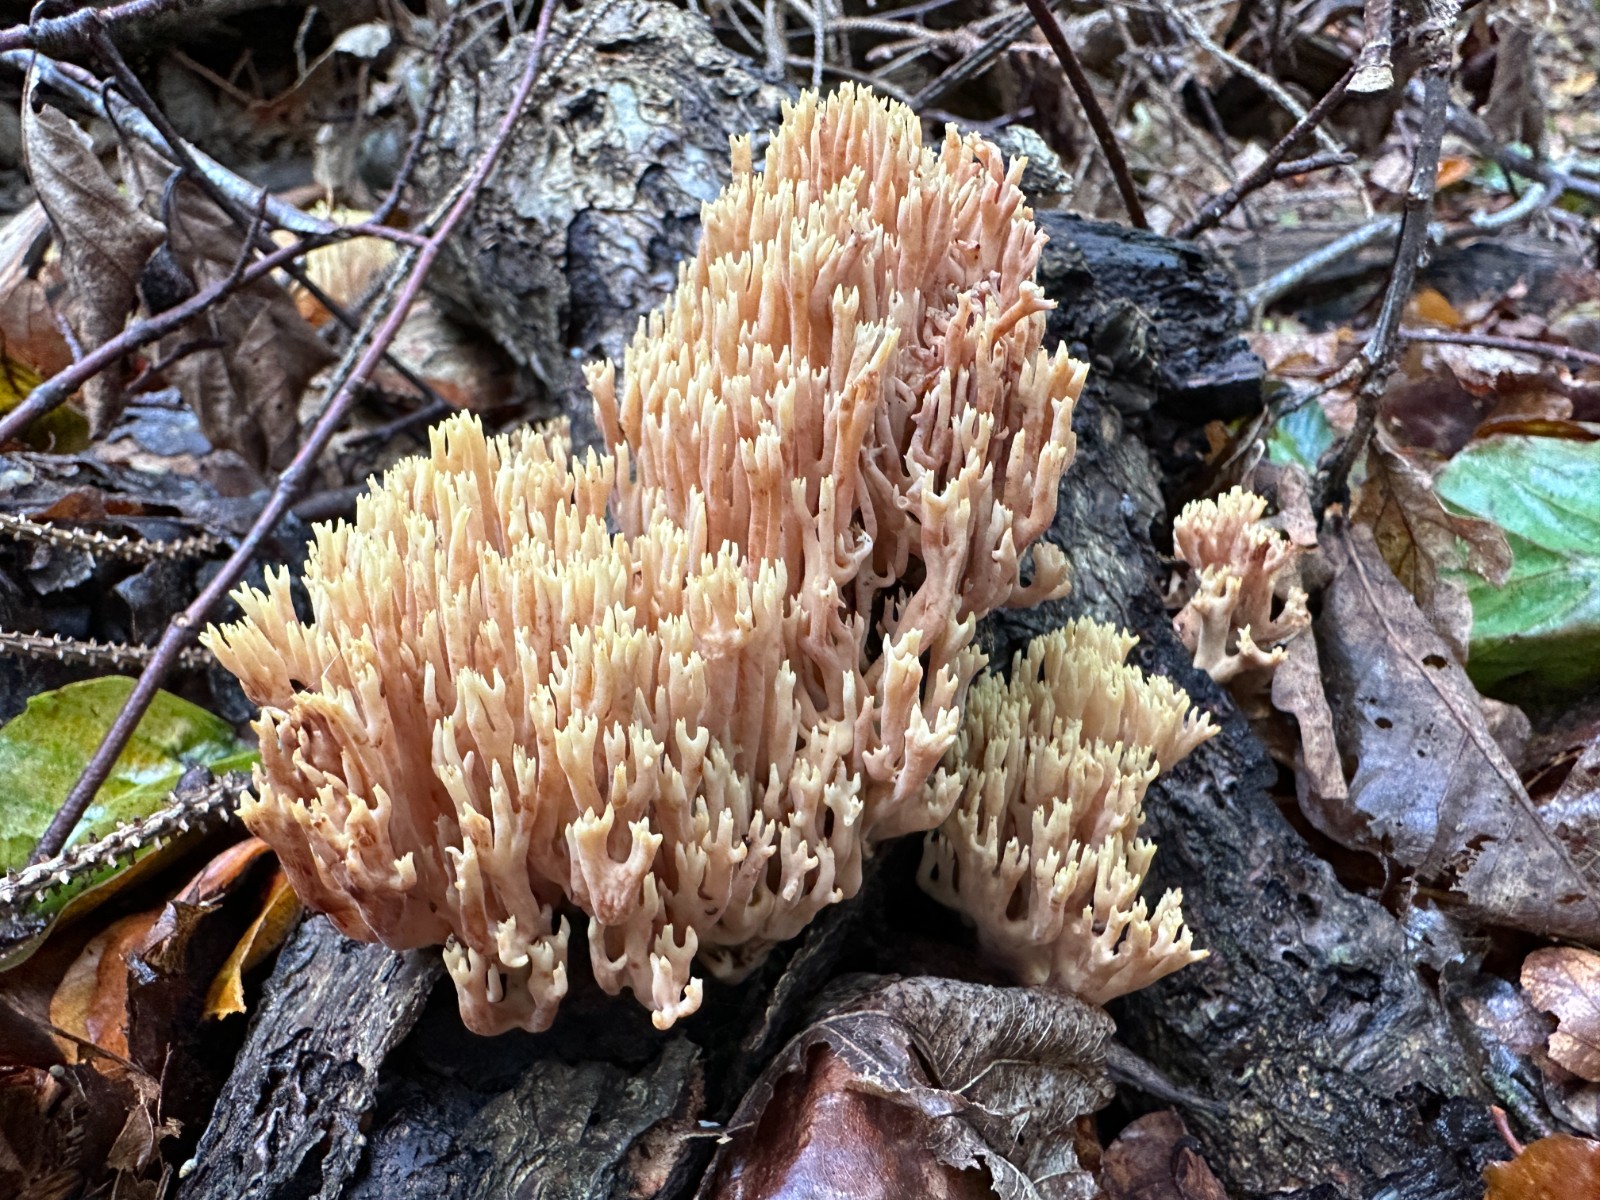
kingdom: Fungi
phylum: Basidiomycota
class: Agaricomycetes
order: Gomphales
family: Gomphaceae
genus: Ramaria
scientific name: Ramaria stricta
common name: rank koralsvamp
